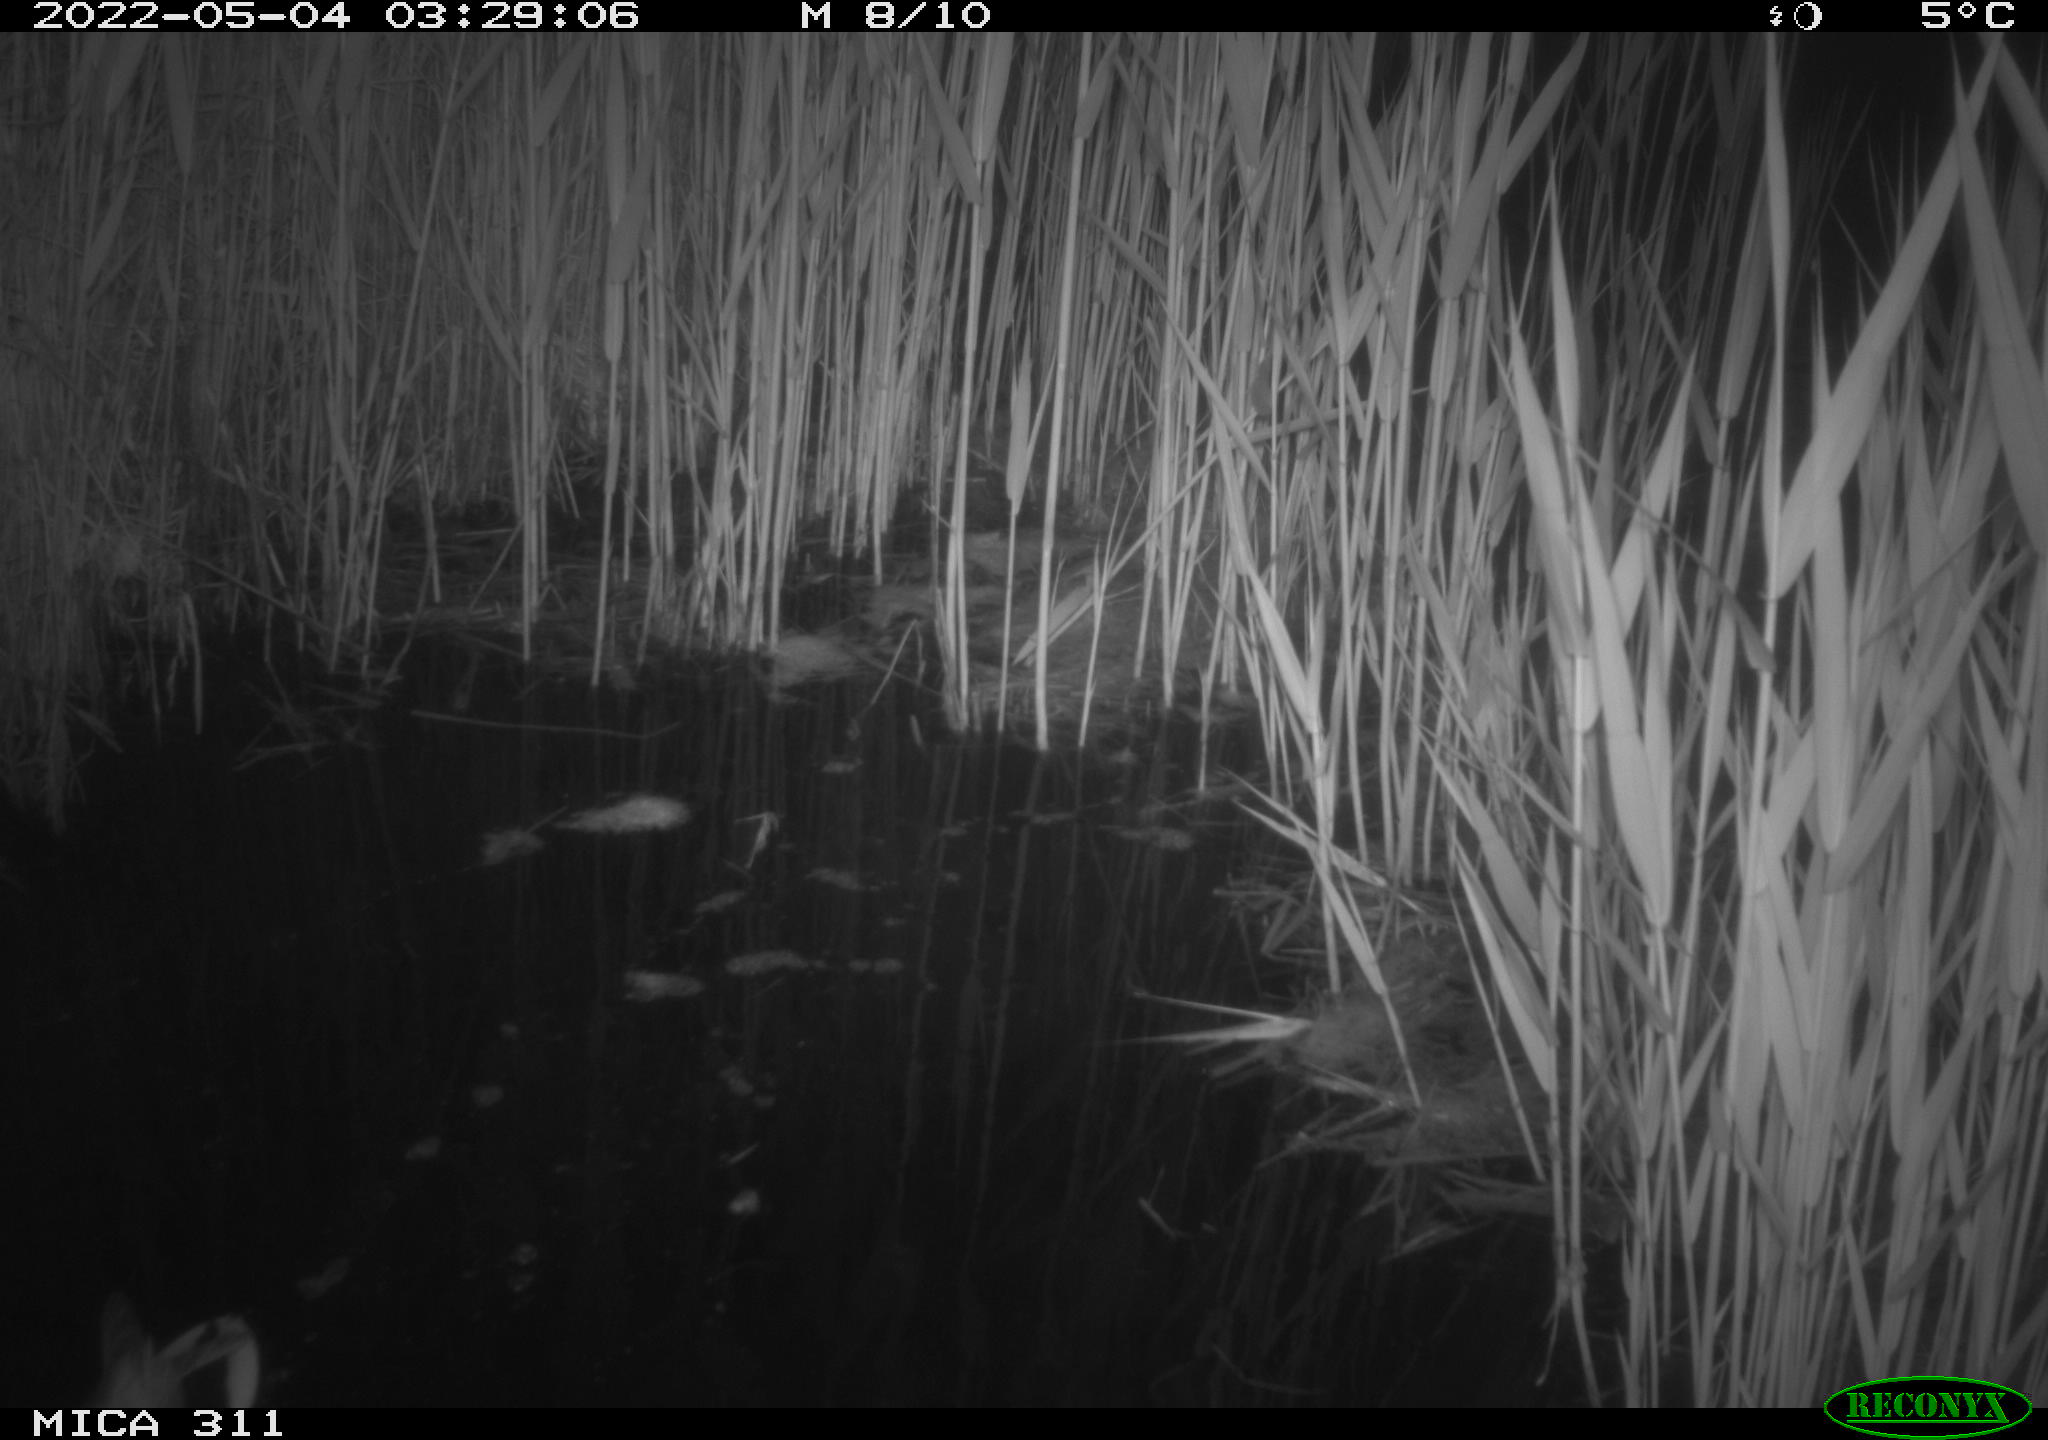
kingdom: Animalia
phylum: Chordata
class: Aves
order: Anseriformes
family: Anatidae
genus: Anas
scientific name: Anas platyrhynchos
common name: Mallard
